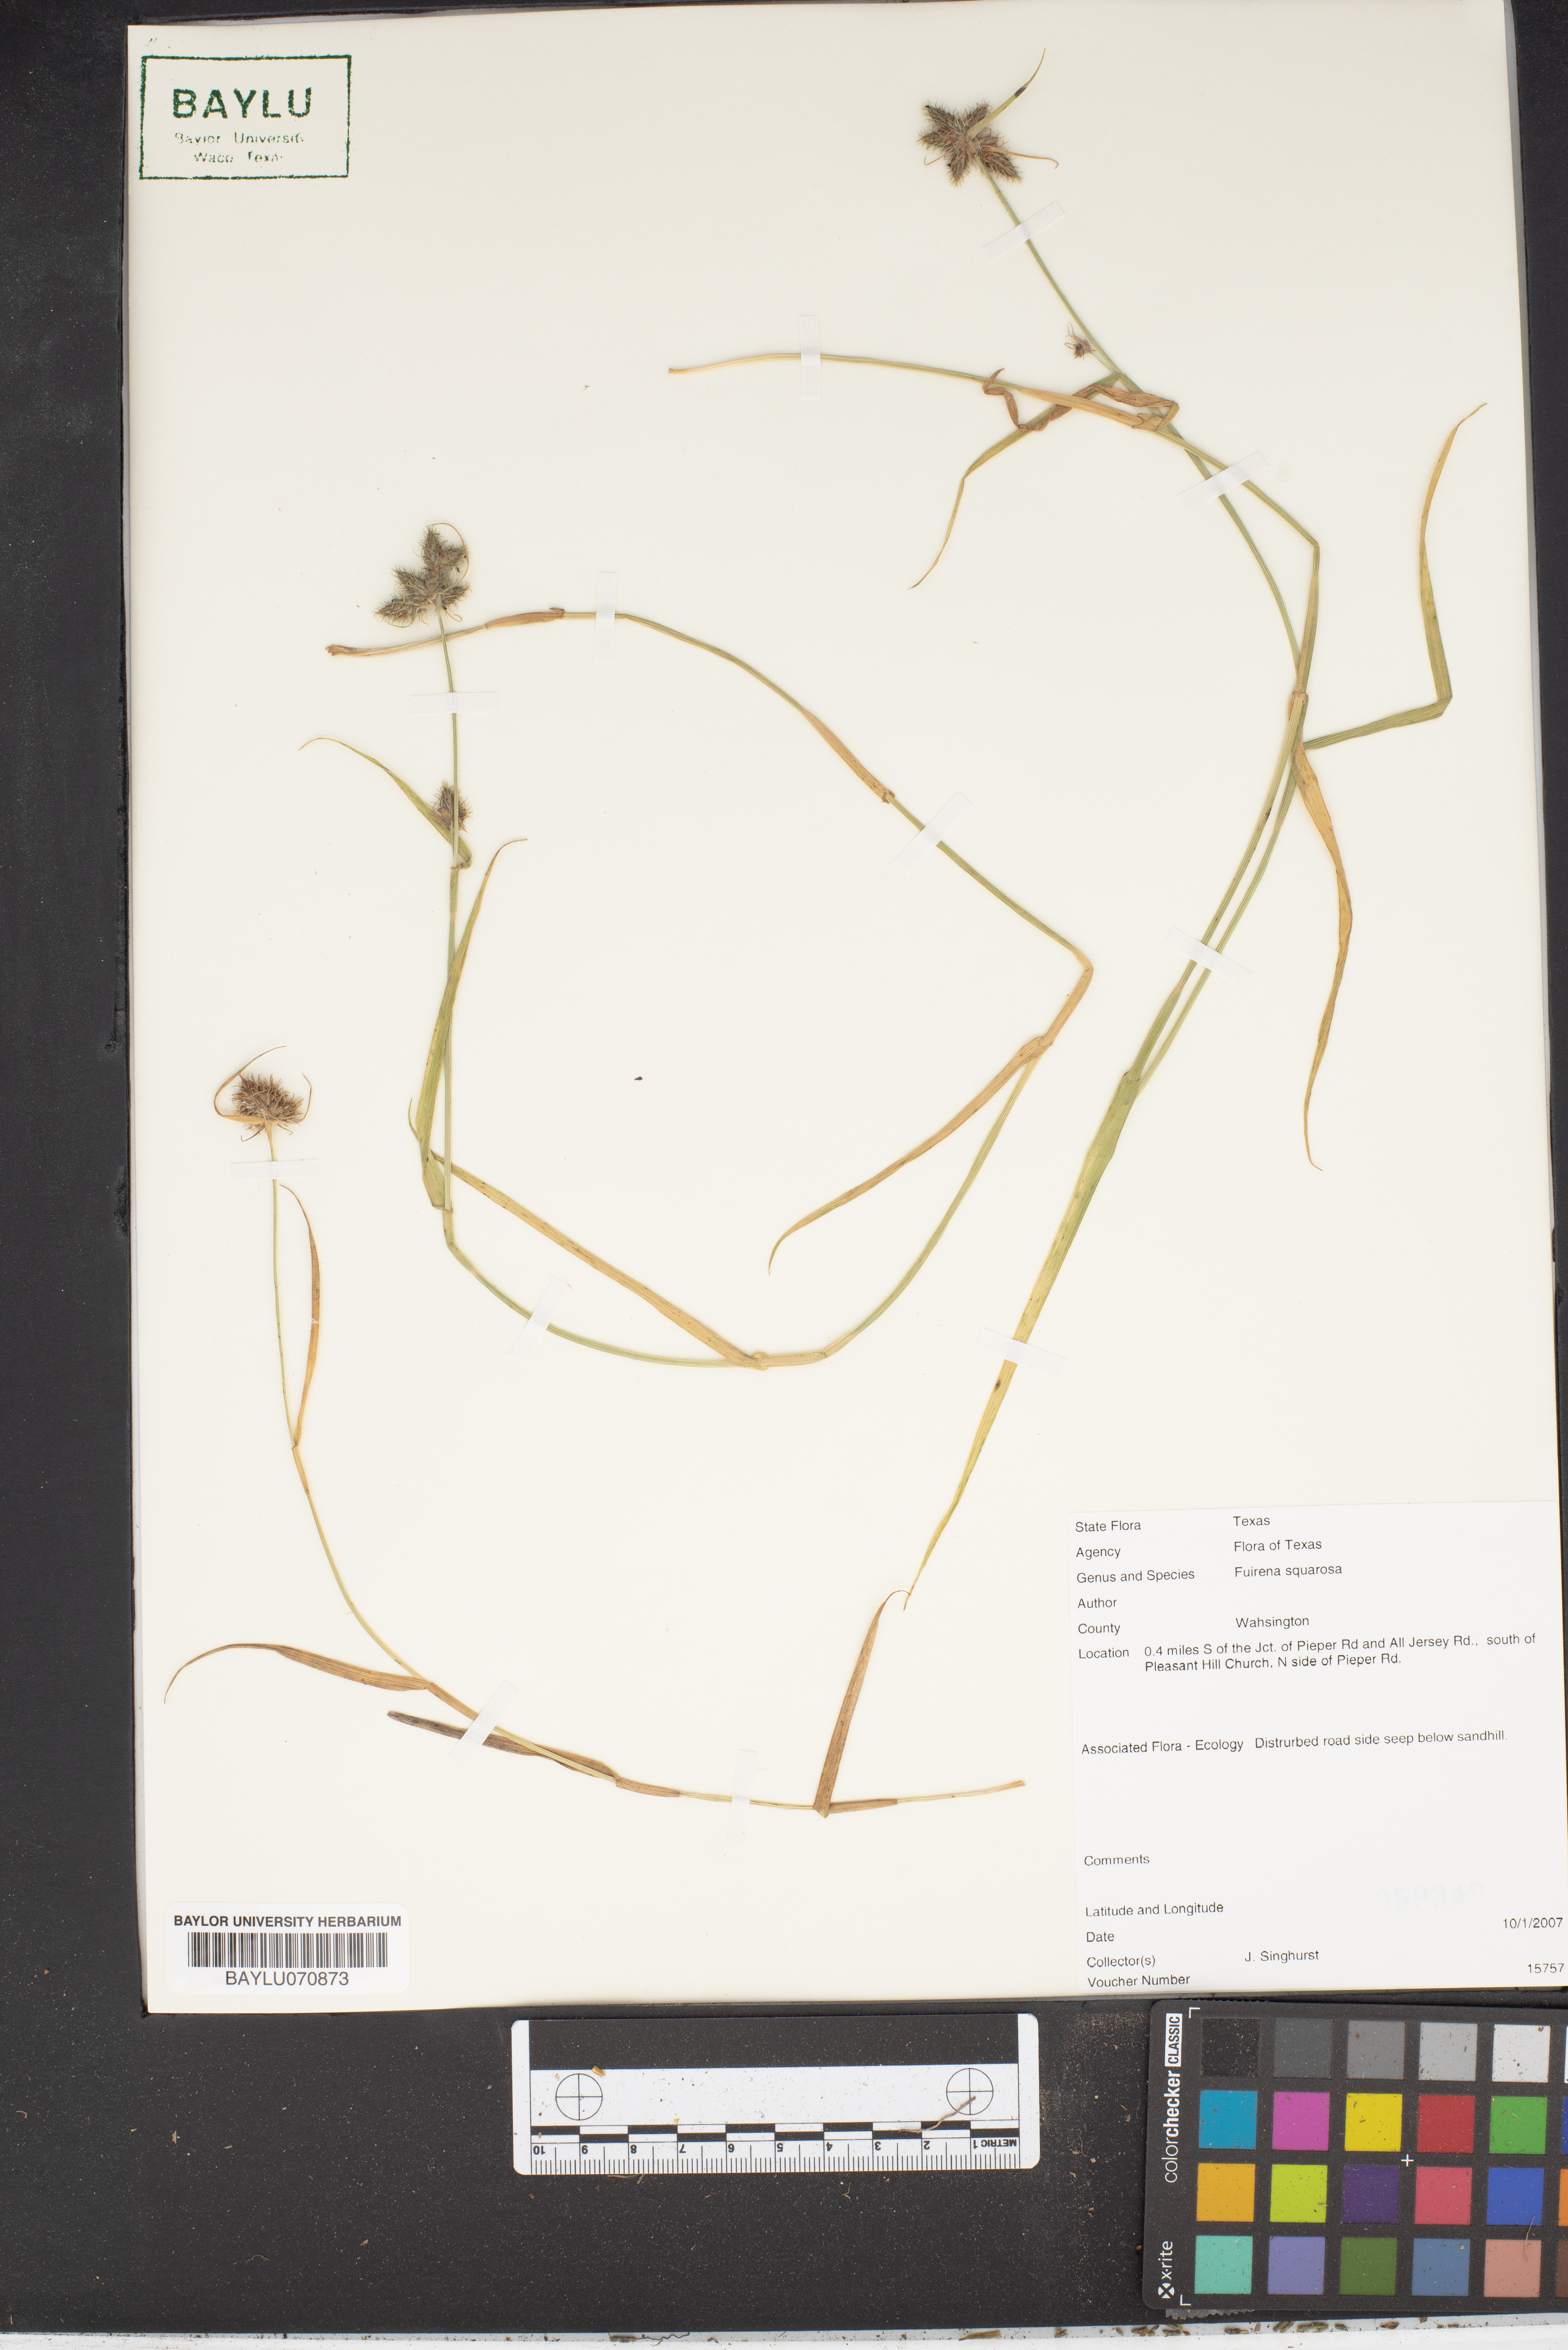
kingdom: Plantae
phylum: Tracheophyta
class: Liliopsida
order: Poales
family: Cyperaceae
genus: Fuirena
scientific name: Fuirena squarrosa
